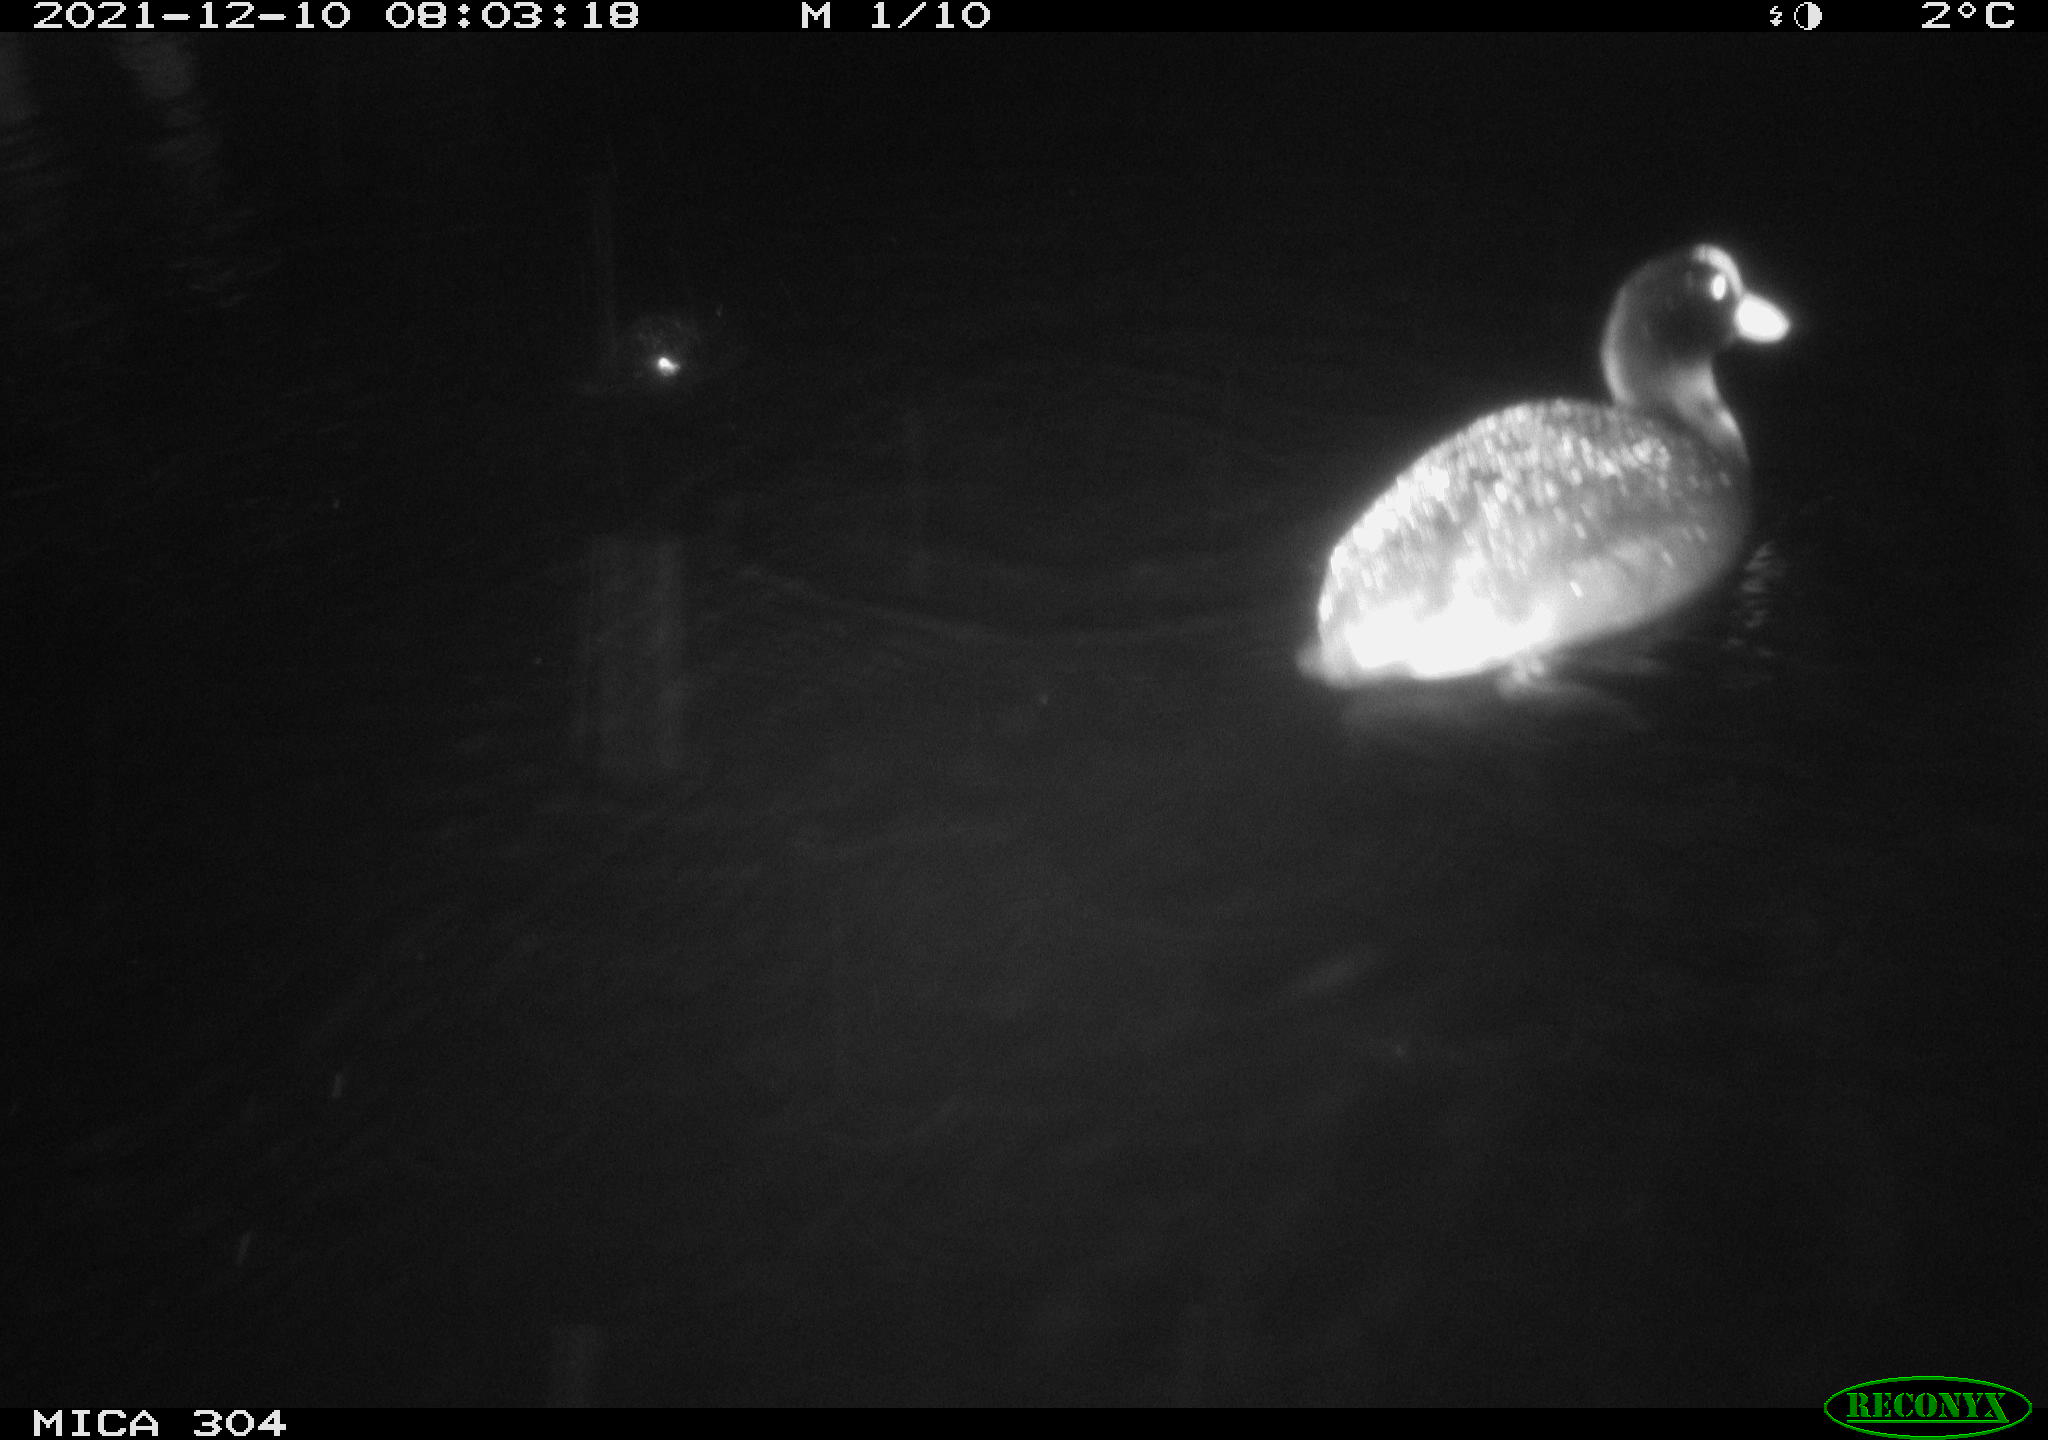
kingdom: Animalia
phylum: Chordata
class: Aves
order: Anseriformes
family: Anatidae
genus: Anas
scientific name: Anas
